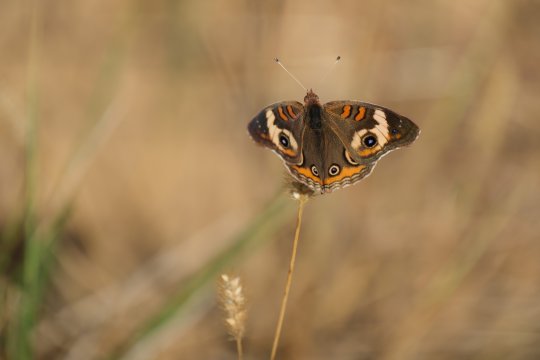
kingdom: Animalia
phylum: Arthropoda
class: Insecta
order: Lepidoptera
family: Nymphalidae
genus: Junonia
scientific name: Junonia coenia
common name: Common Buckeye
